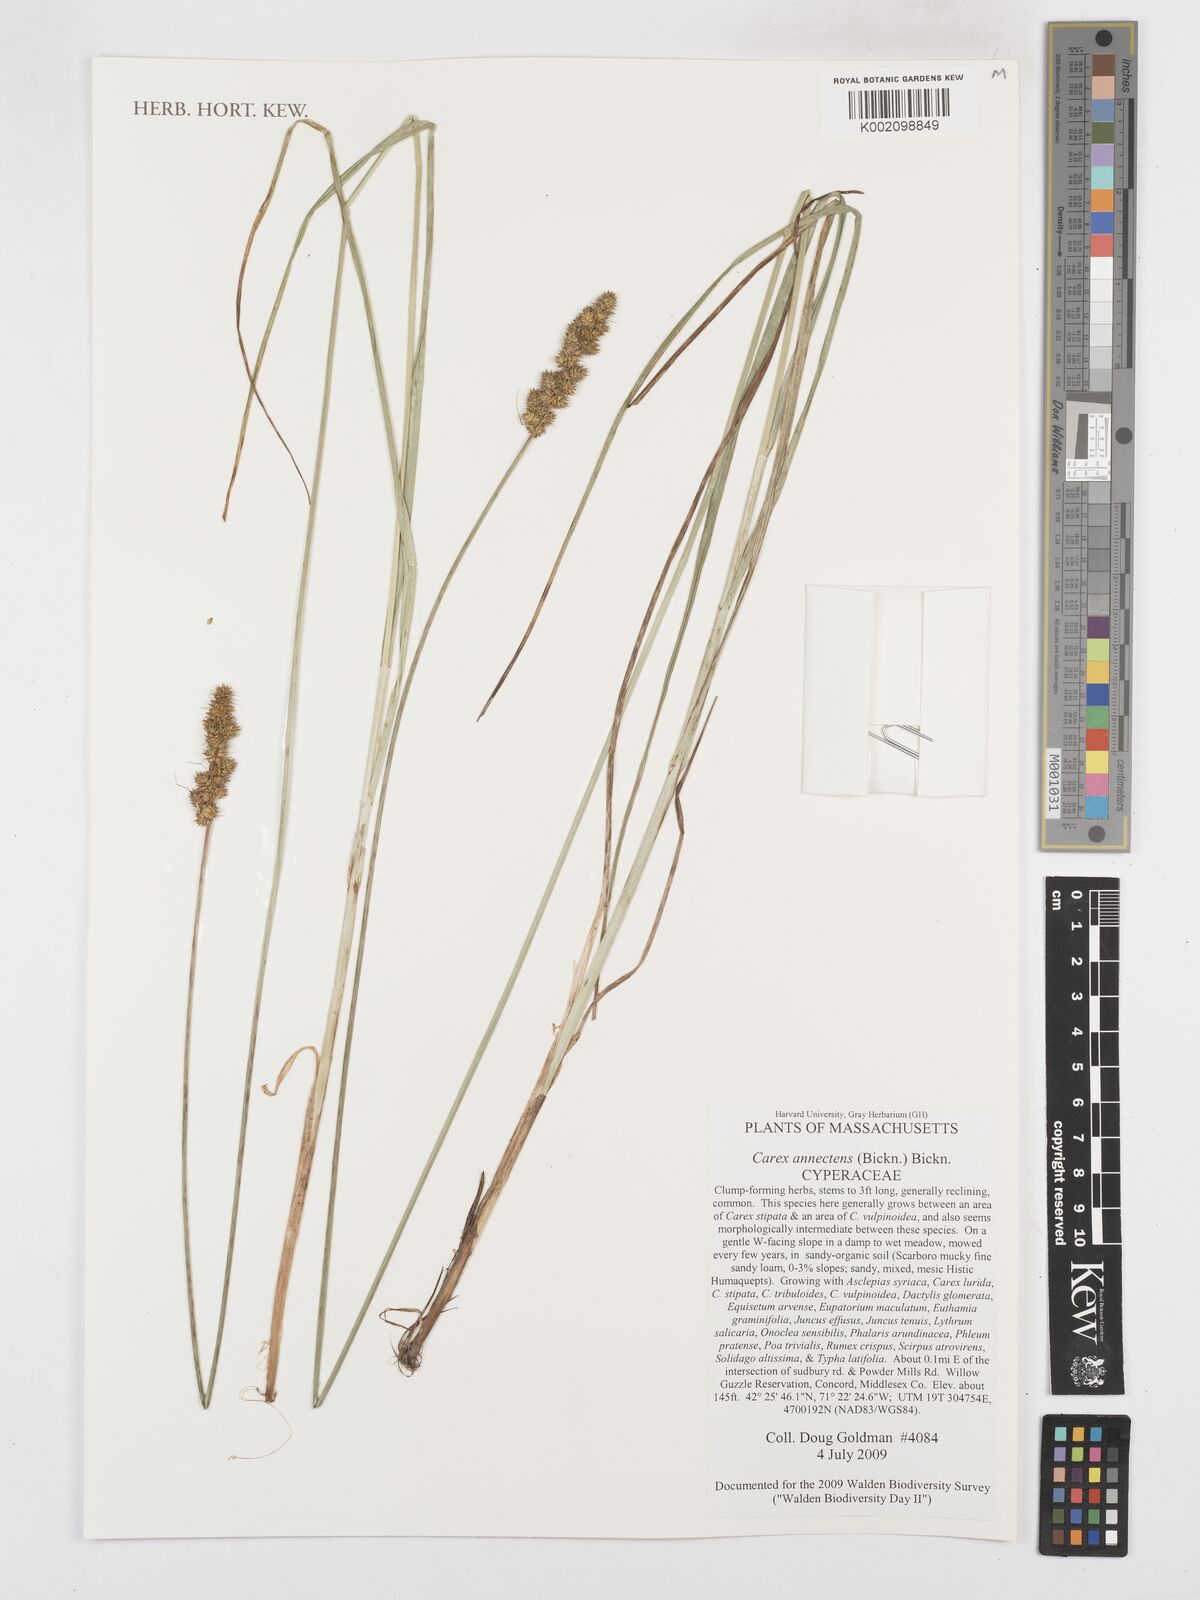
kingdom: Plantae
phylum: Tracheophyta
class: Liliopsida
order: Poales
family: Cyperaceae
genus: Carex
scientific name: Carex annectens
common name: Large fox sedge
